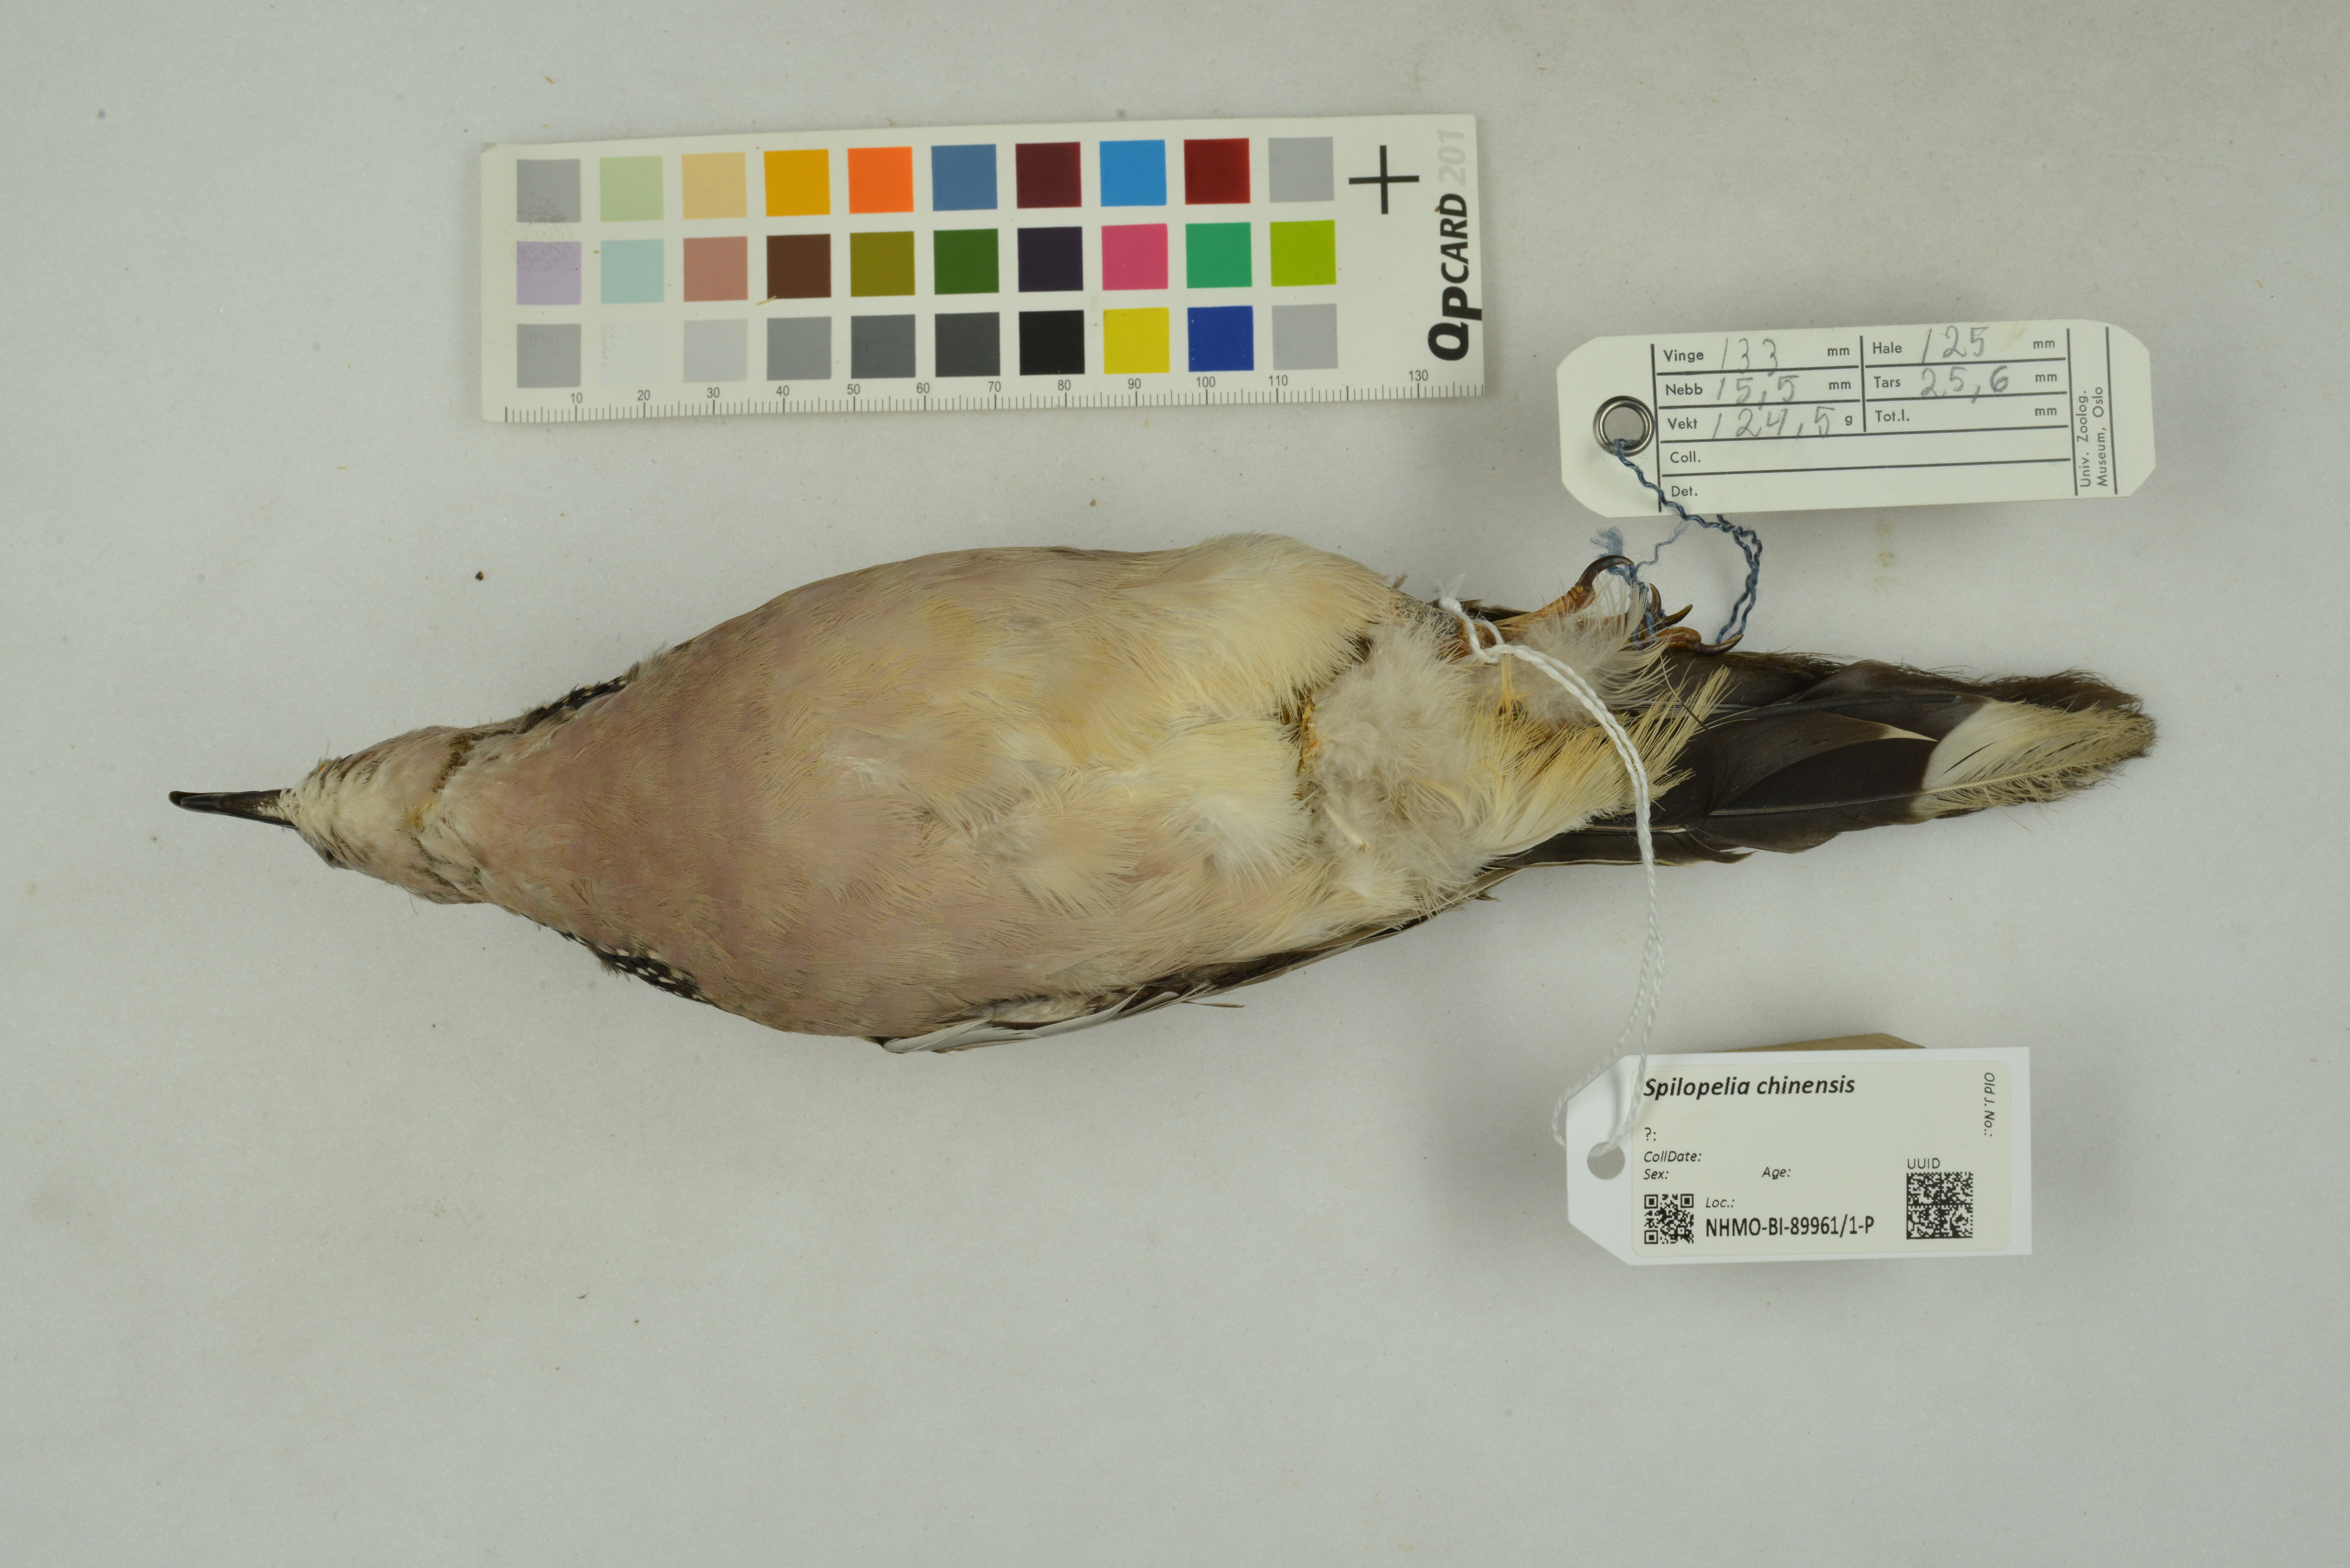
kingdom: Animalia
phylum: Chordata
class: Aves
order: Columbiformes
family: Columbidae
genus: Spilopelia
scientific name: Spilopelia chinensis
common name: Spotted dove
